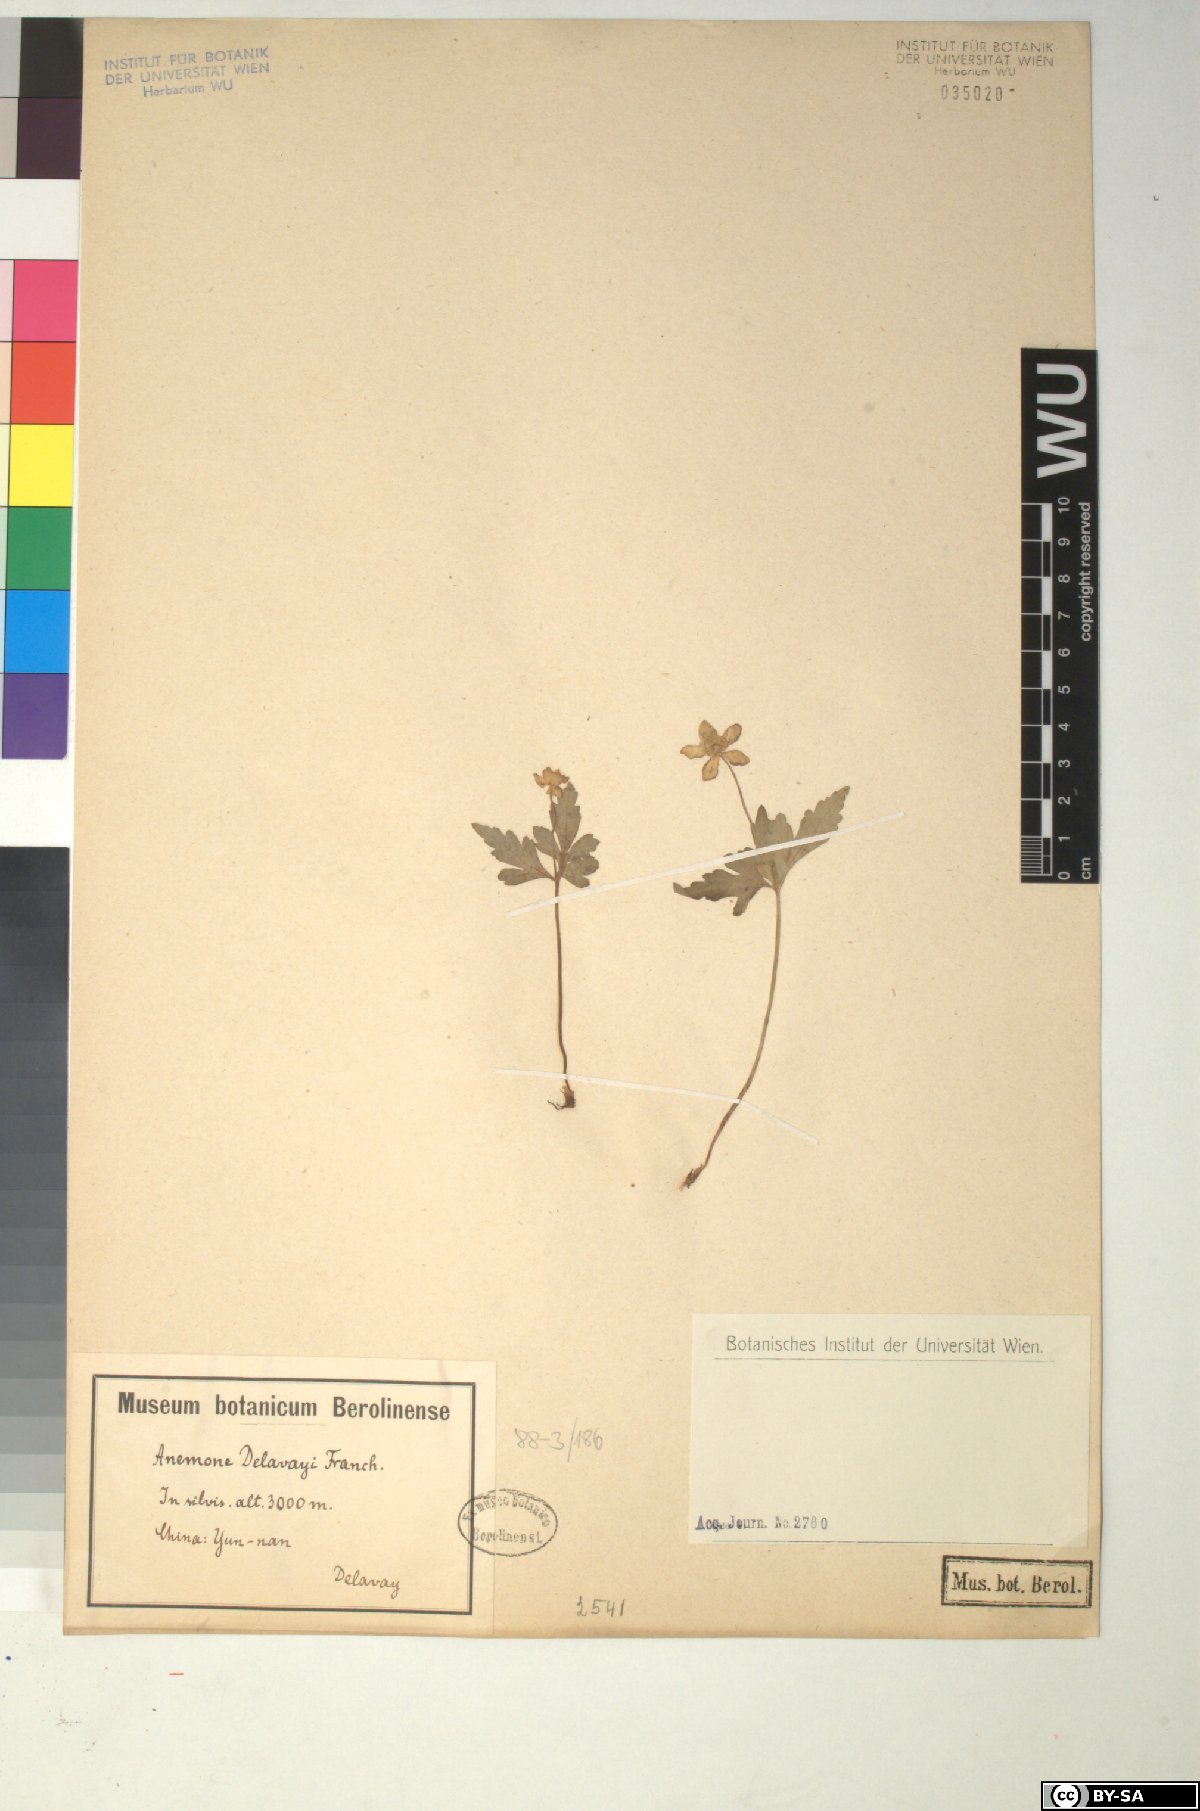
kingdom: Plantae
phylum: Tracheophyta
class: Magnoliopsida
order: Ranunculales
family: Ranunculaceae
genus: Anemone
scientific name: Anemone delavayi
